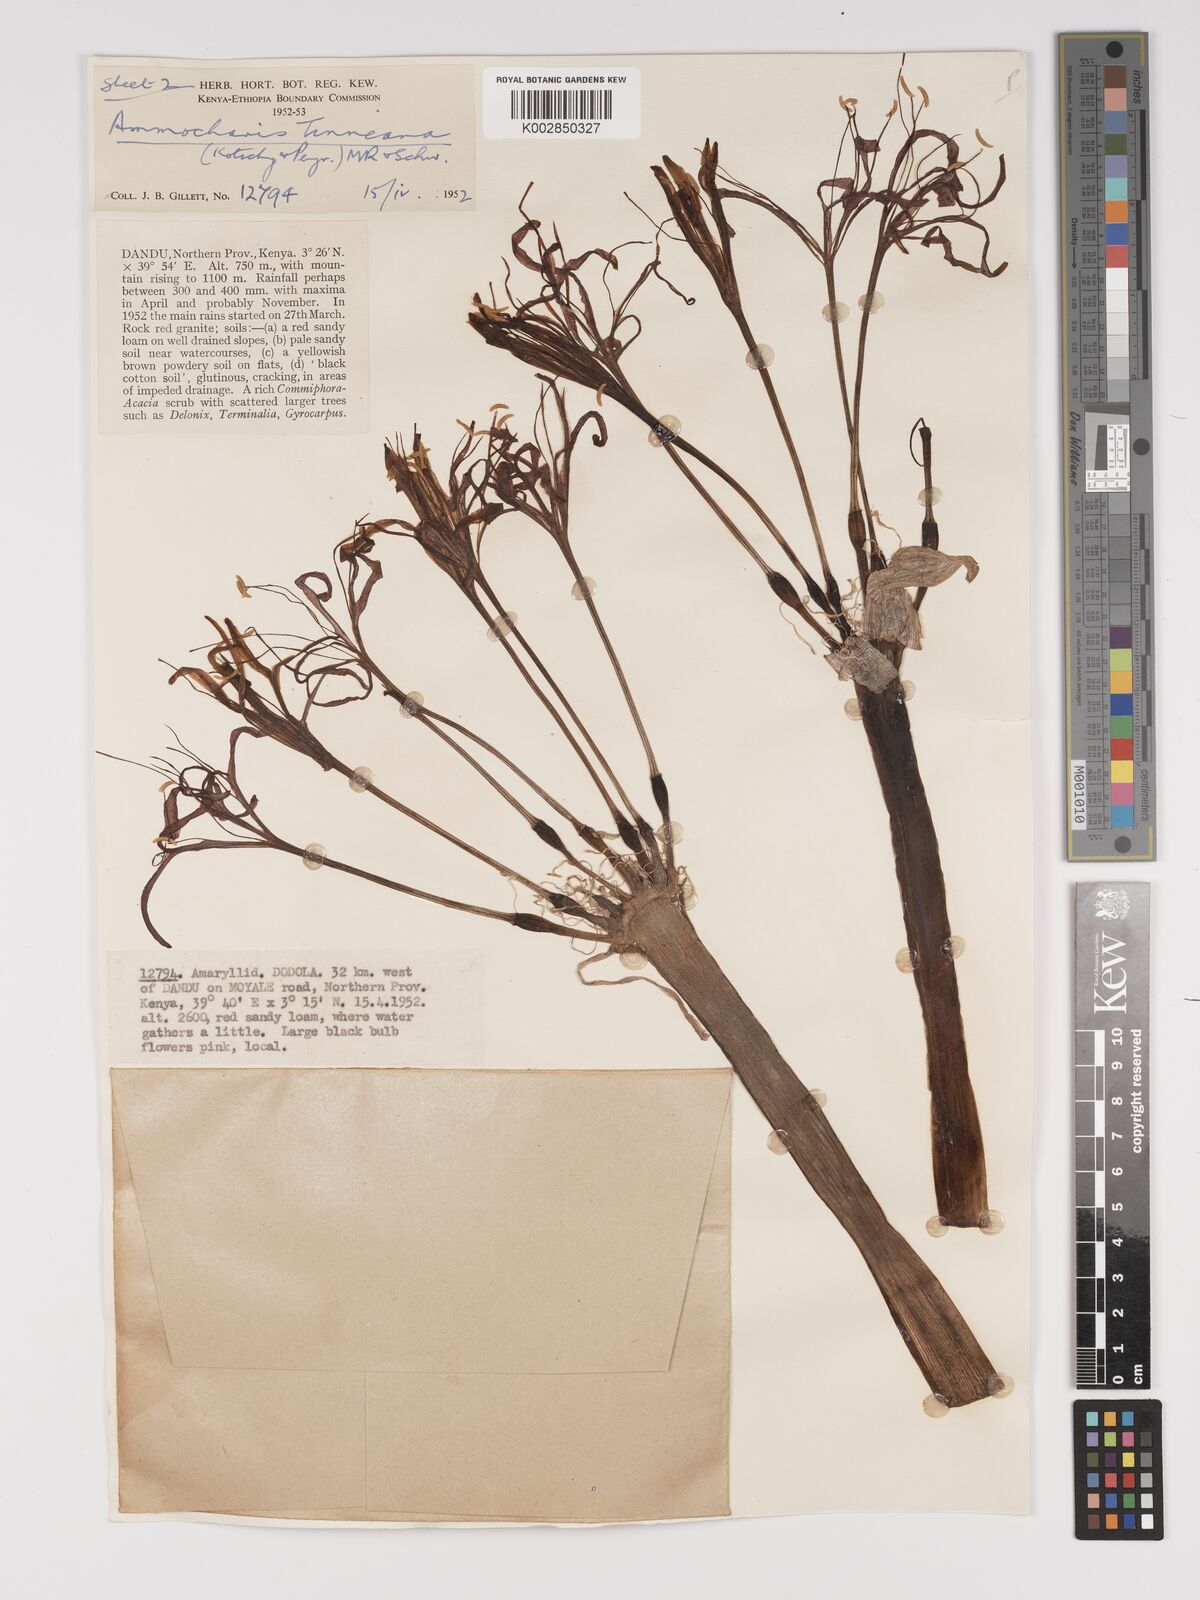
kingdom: Plantae
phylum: Tracheophyta
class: Liliopsida
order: Asparagales
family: Amaryllidaceae
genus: Ammocharis
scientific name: Ammocharis tinneana
